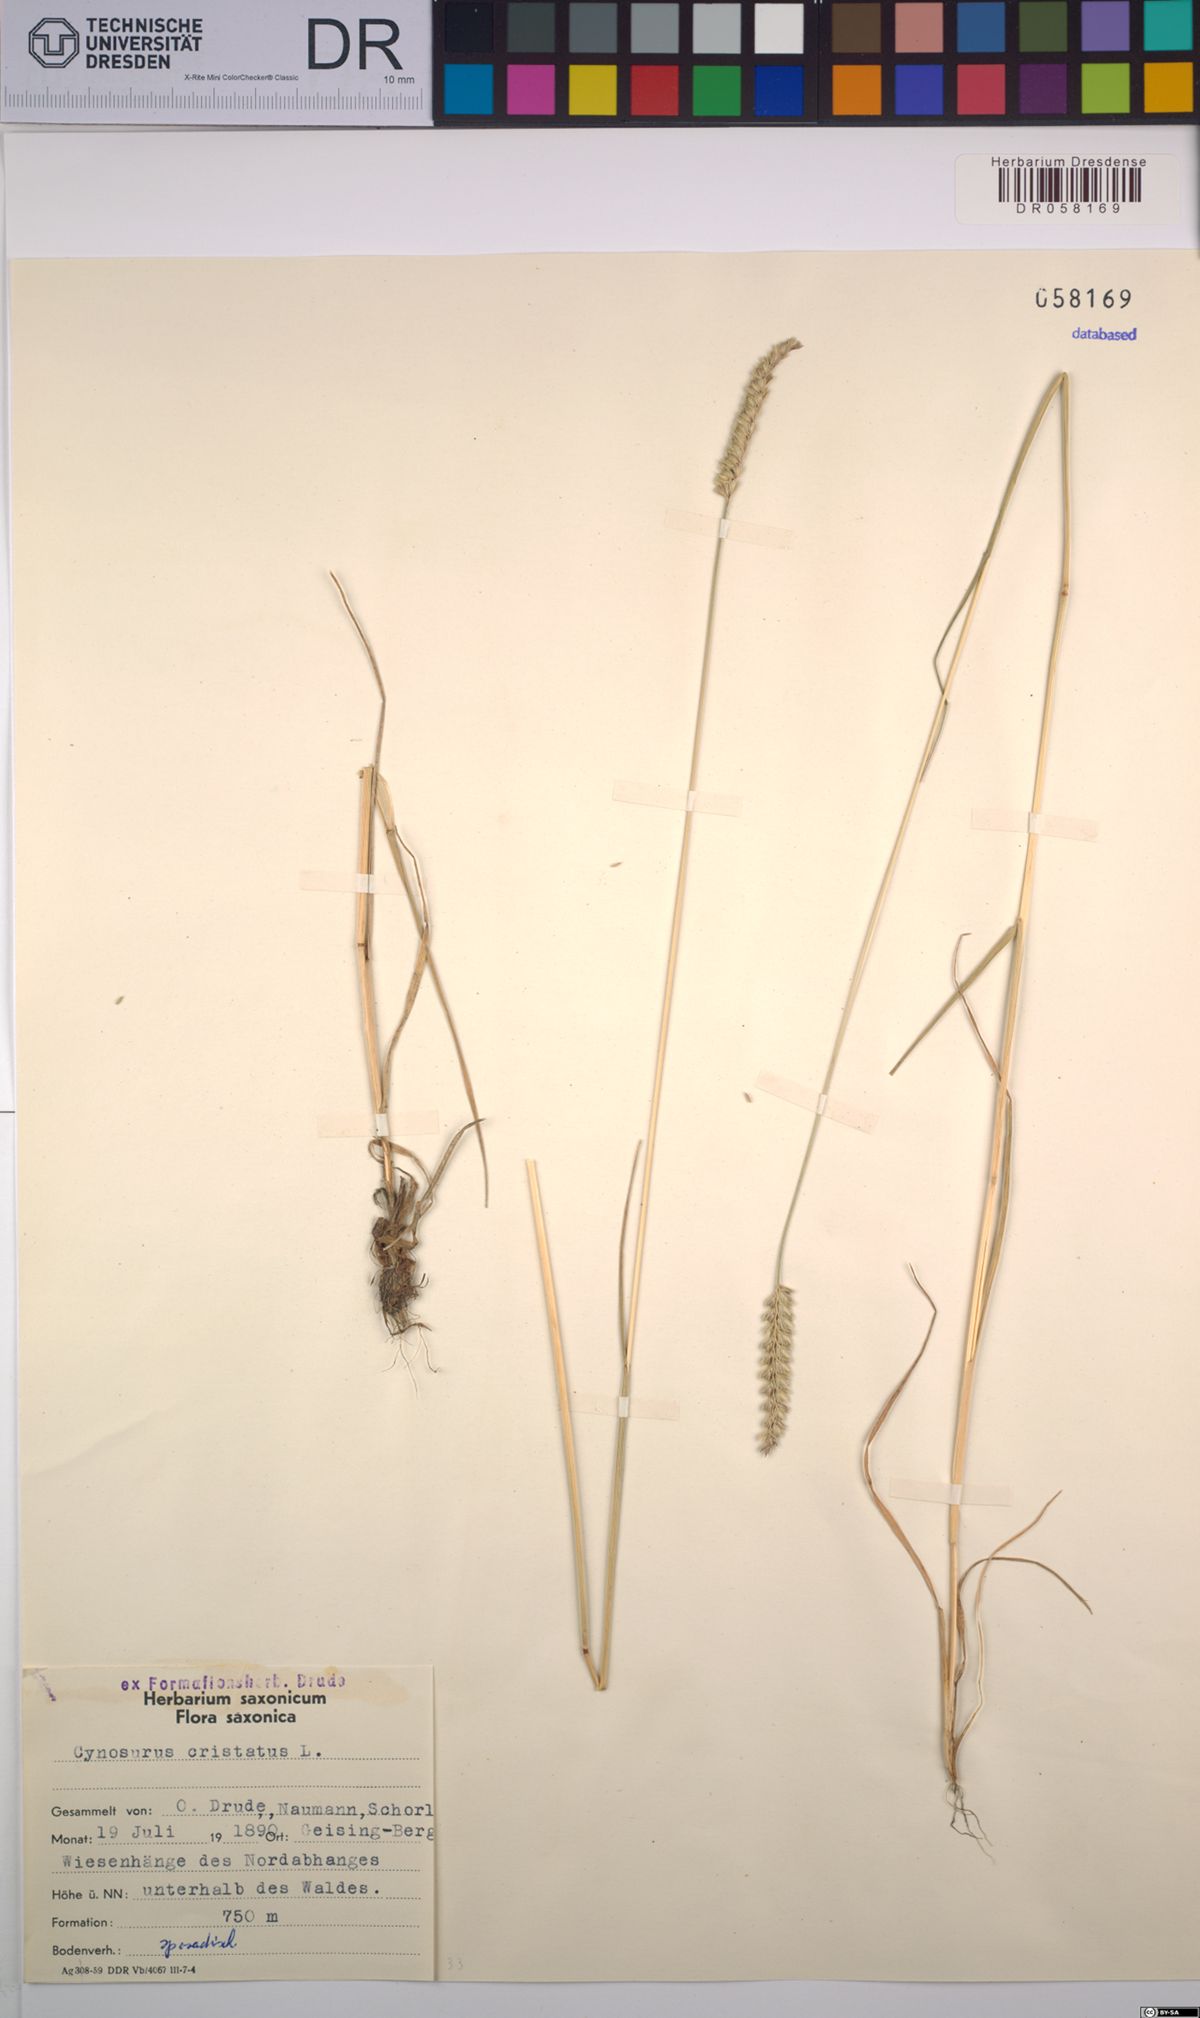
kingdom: Plantae
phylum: Tracheophyta
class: Liliopsida
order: Poales
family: Poaceae
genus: Cynosurus
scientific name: Cynosurus cristatus
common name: Crested dog's-tail
